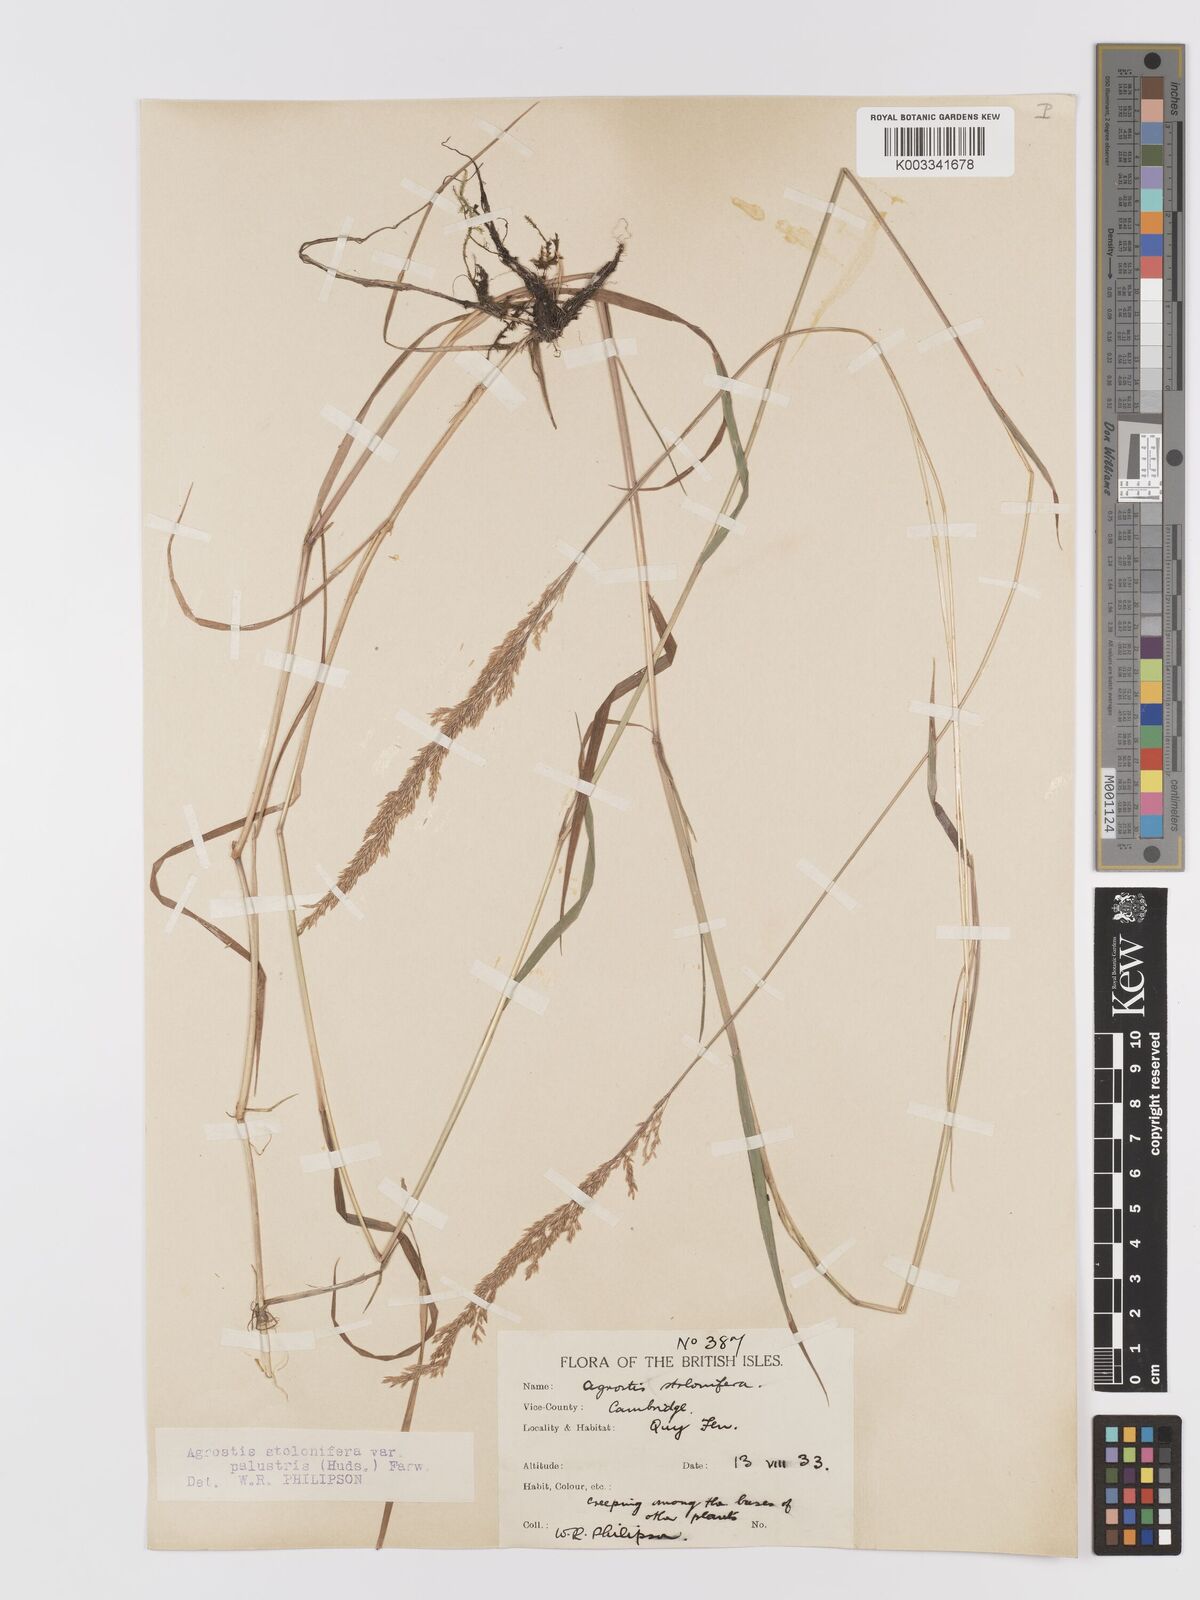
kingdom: Plantae
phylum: Tracheophyta
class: Liliopsida
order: Poales
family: Poaceae
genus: Agrostis
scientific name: Agrostis stolonifera
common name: Creeping bentgrass
